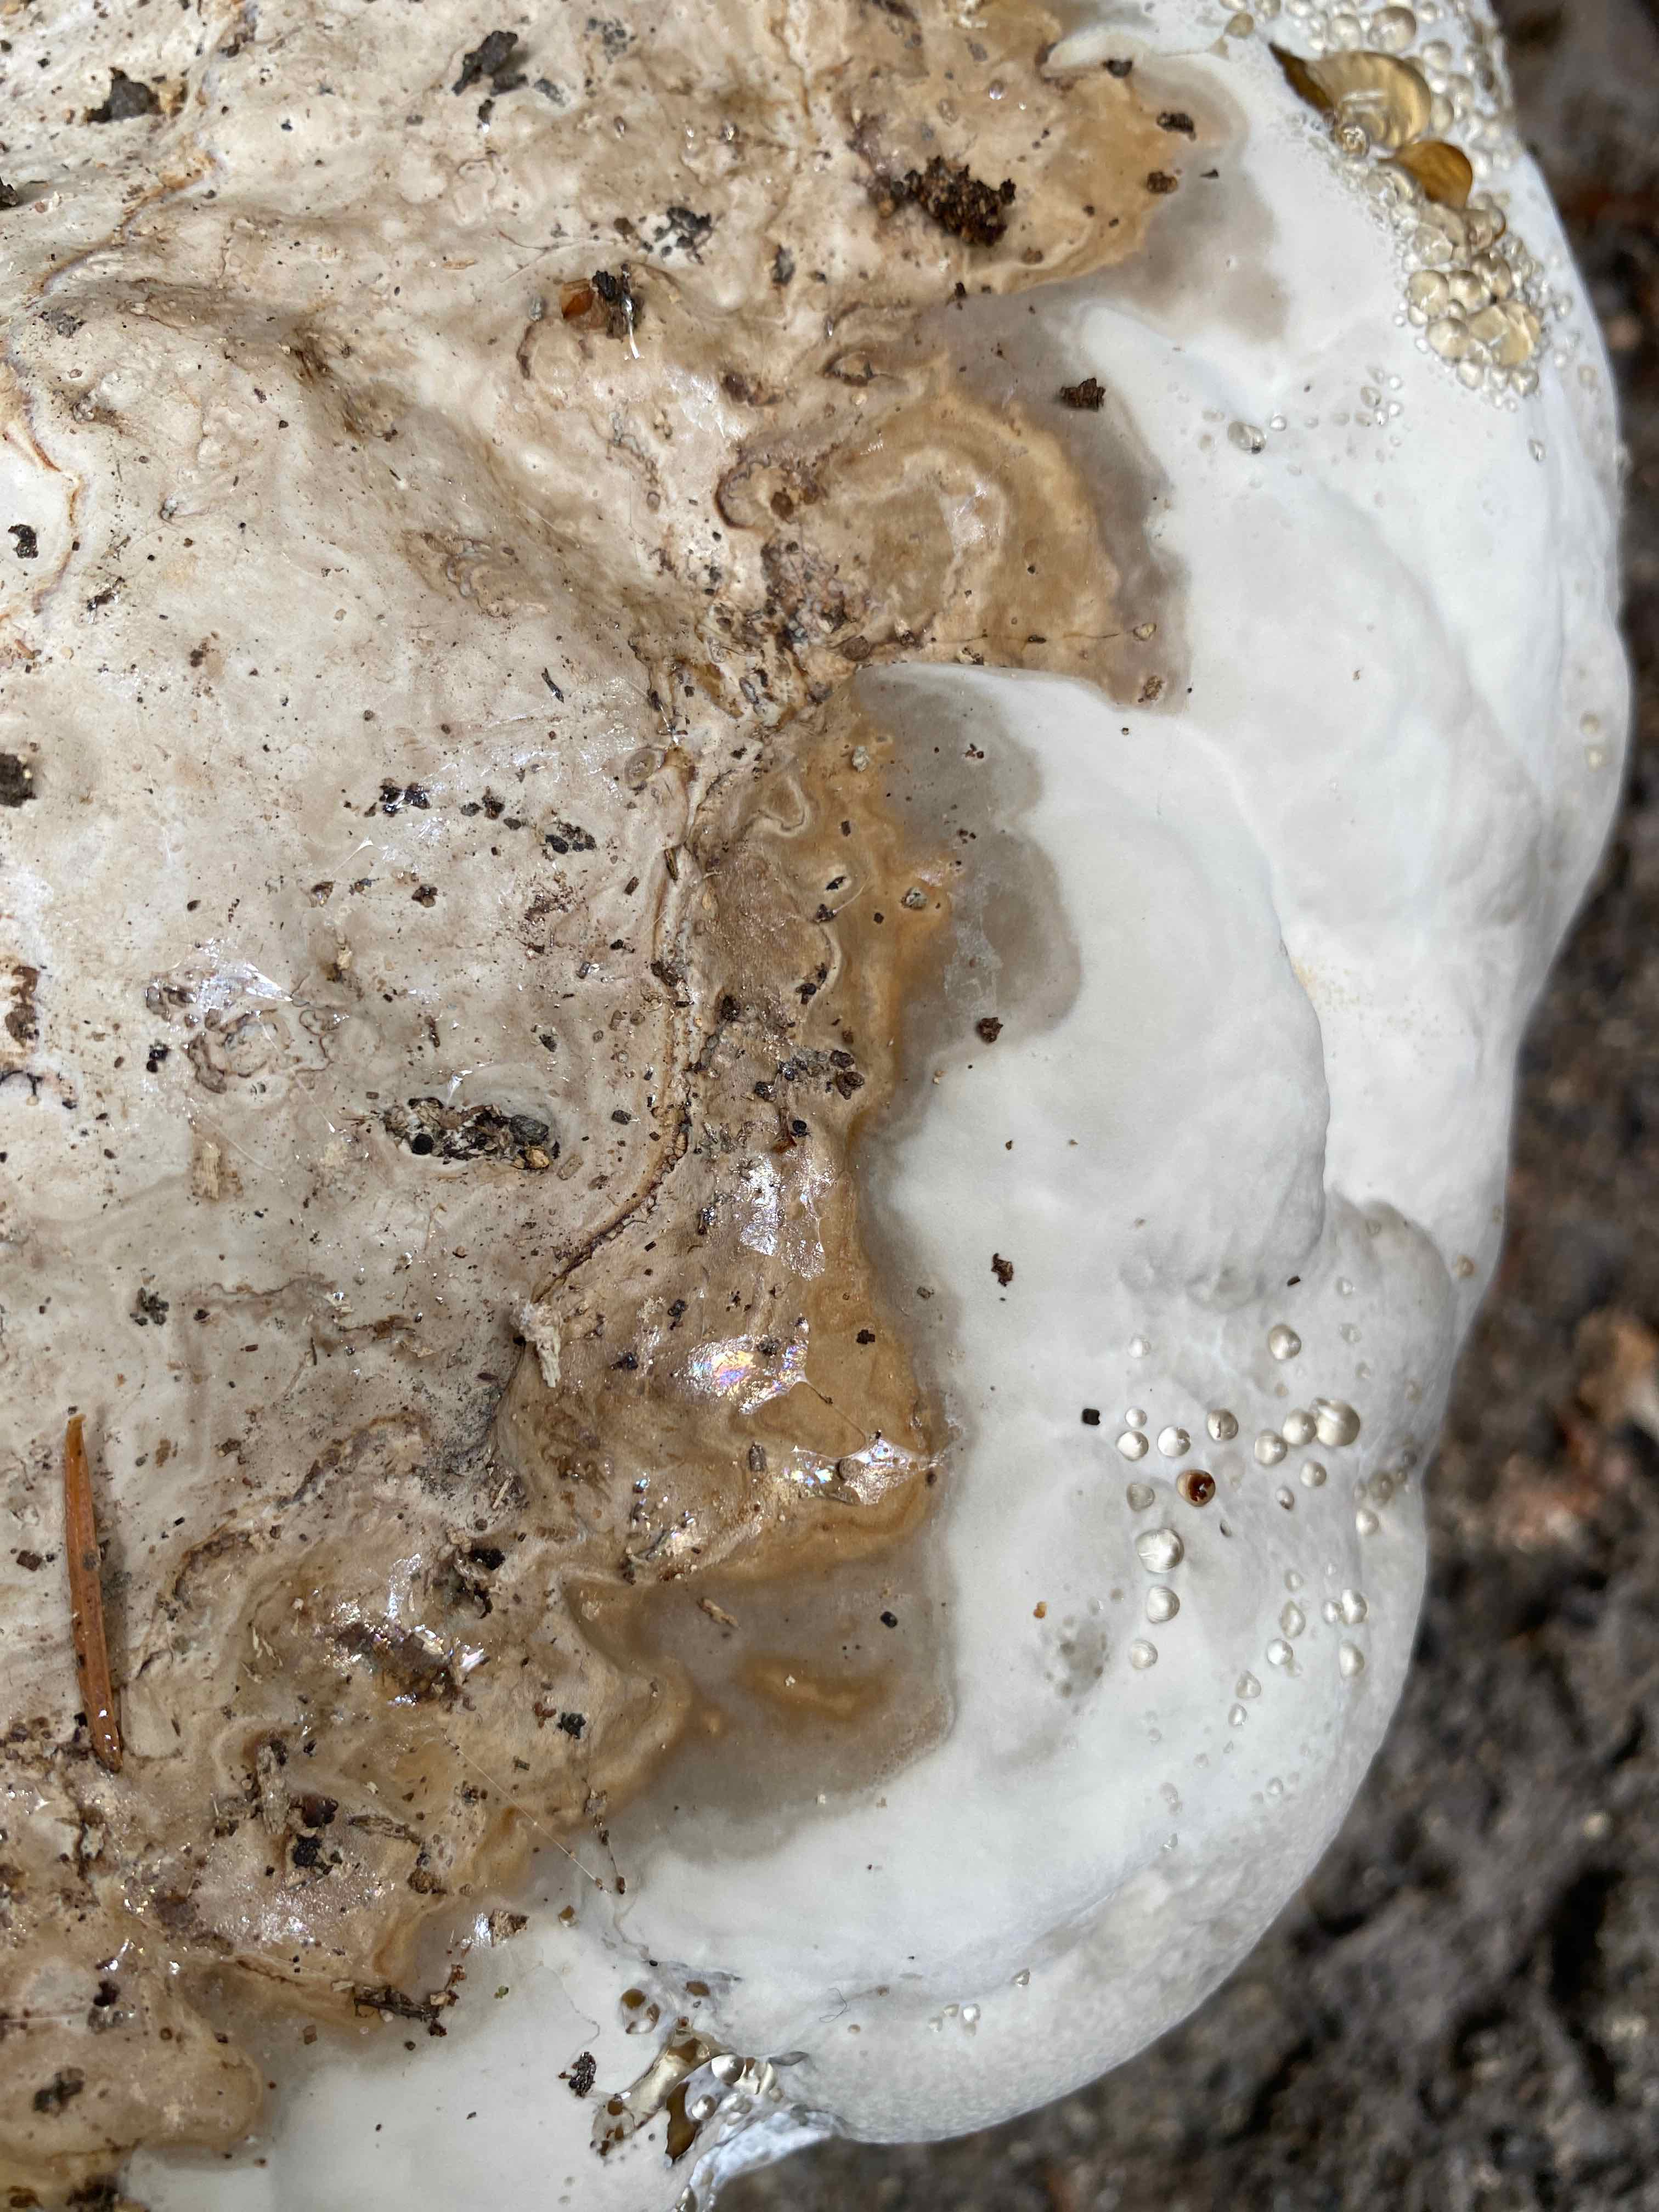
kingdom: Fungi
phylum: Basidiomycota
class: Agaricomycetes
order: Polyporales
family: Polyporaceae
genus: Fomes
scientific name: Fomes fomentarius
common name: tøndersvamp
